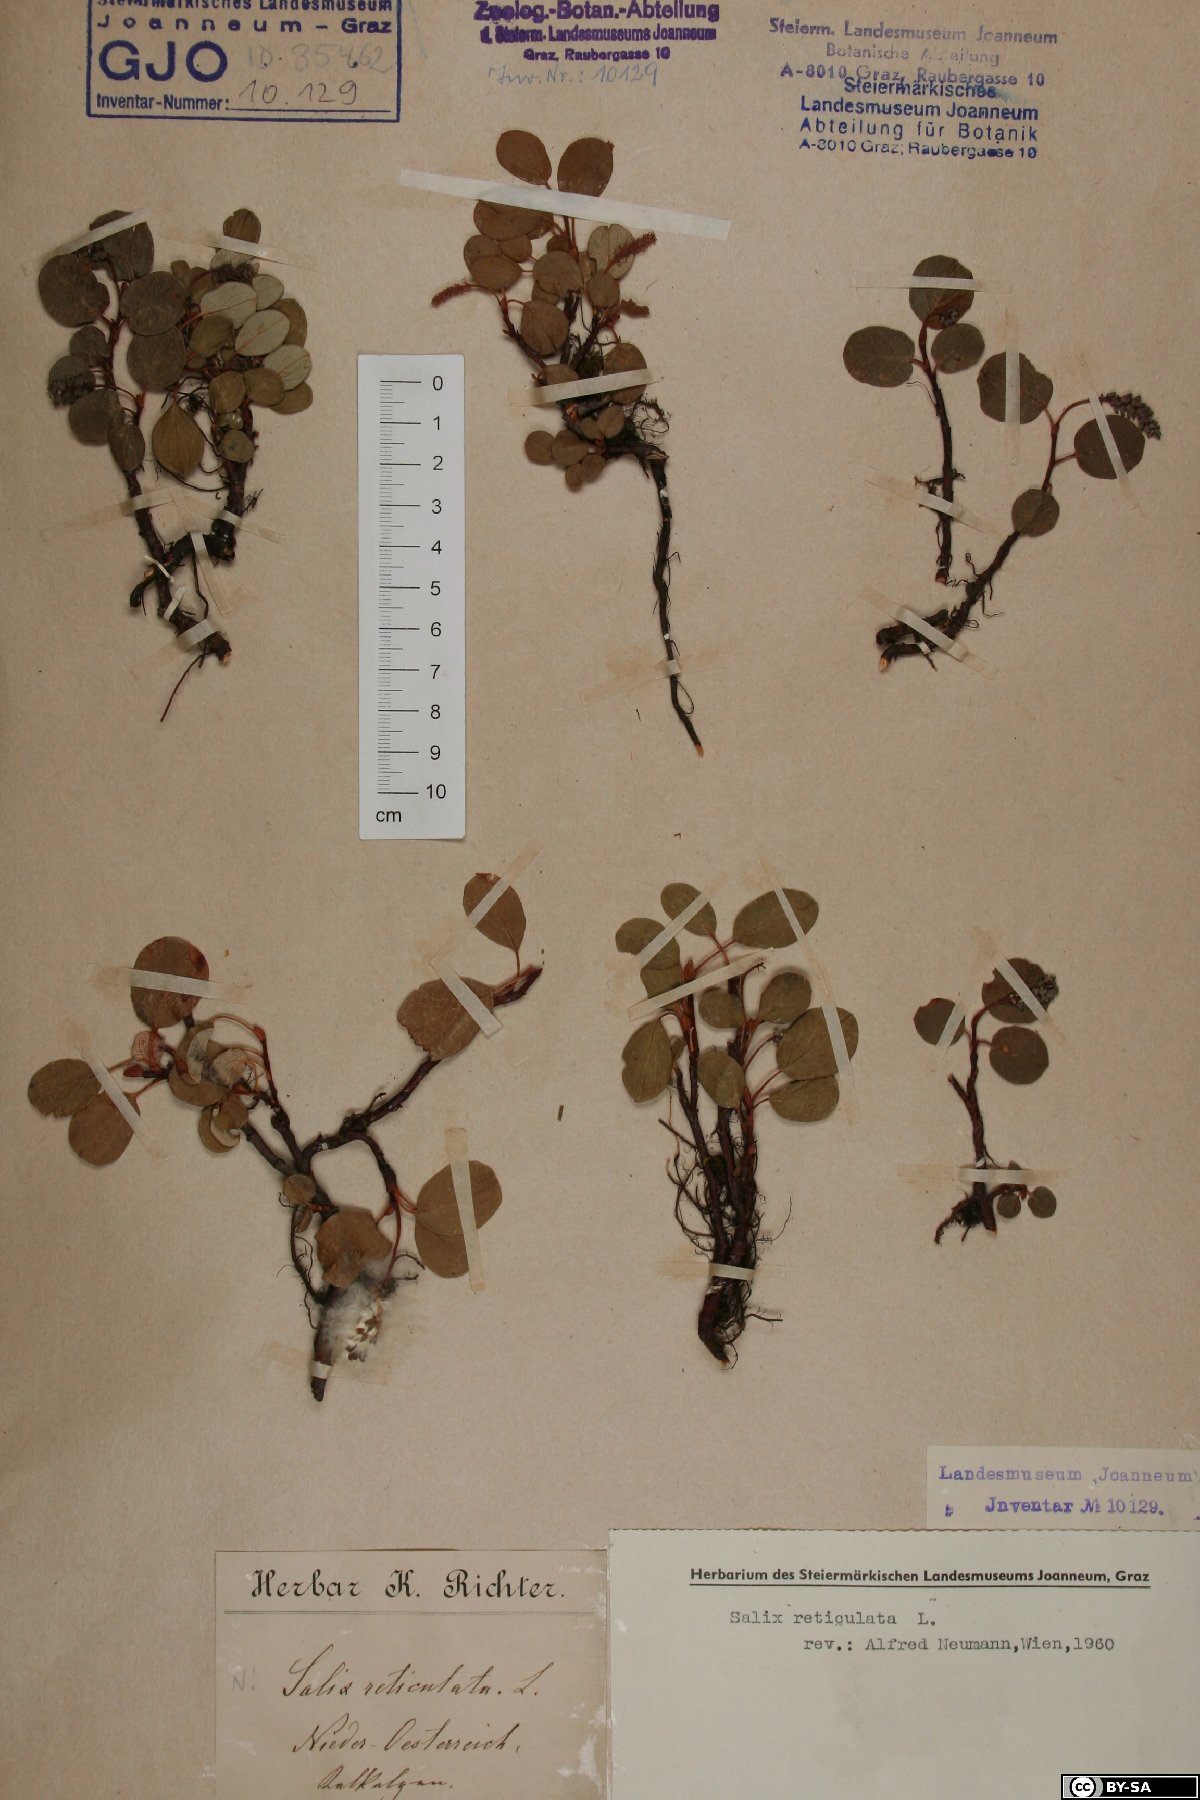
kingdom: Plantae
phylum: Tracheophyta
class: Magnoliopsida
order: Malpighiales
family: Salicaceae
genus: Salix
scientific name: Salix reticulata
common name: Net-leaved willow
